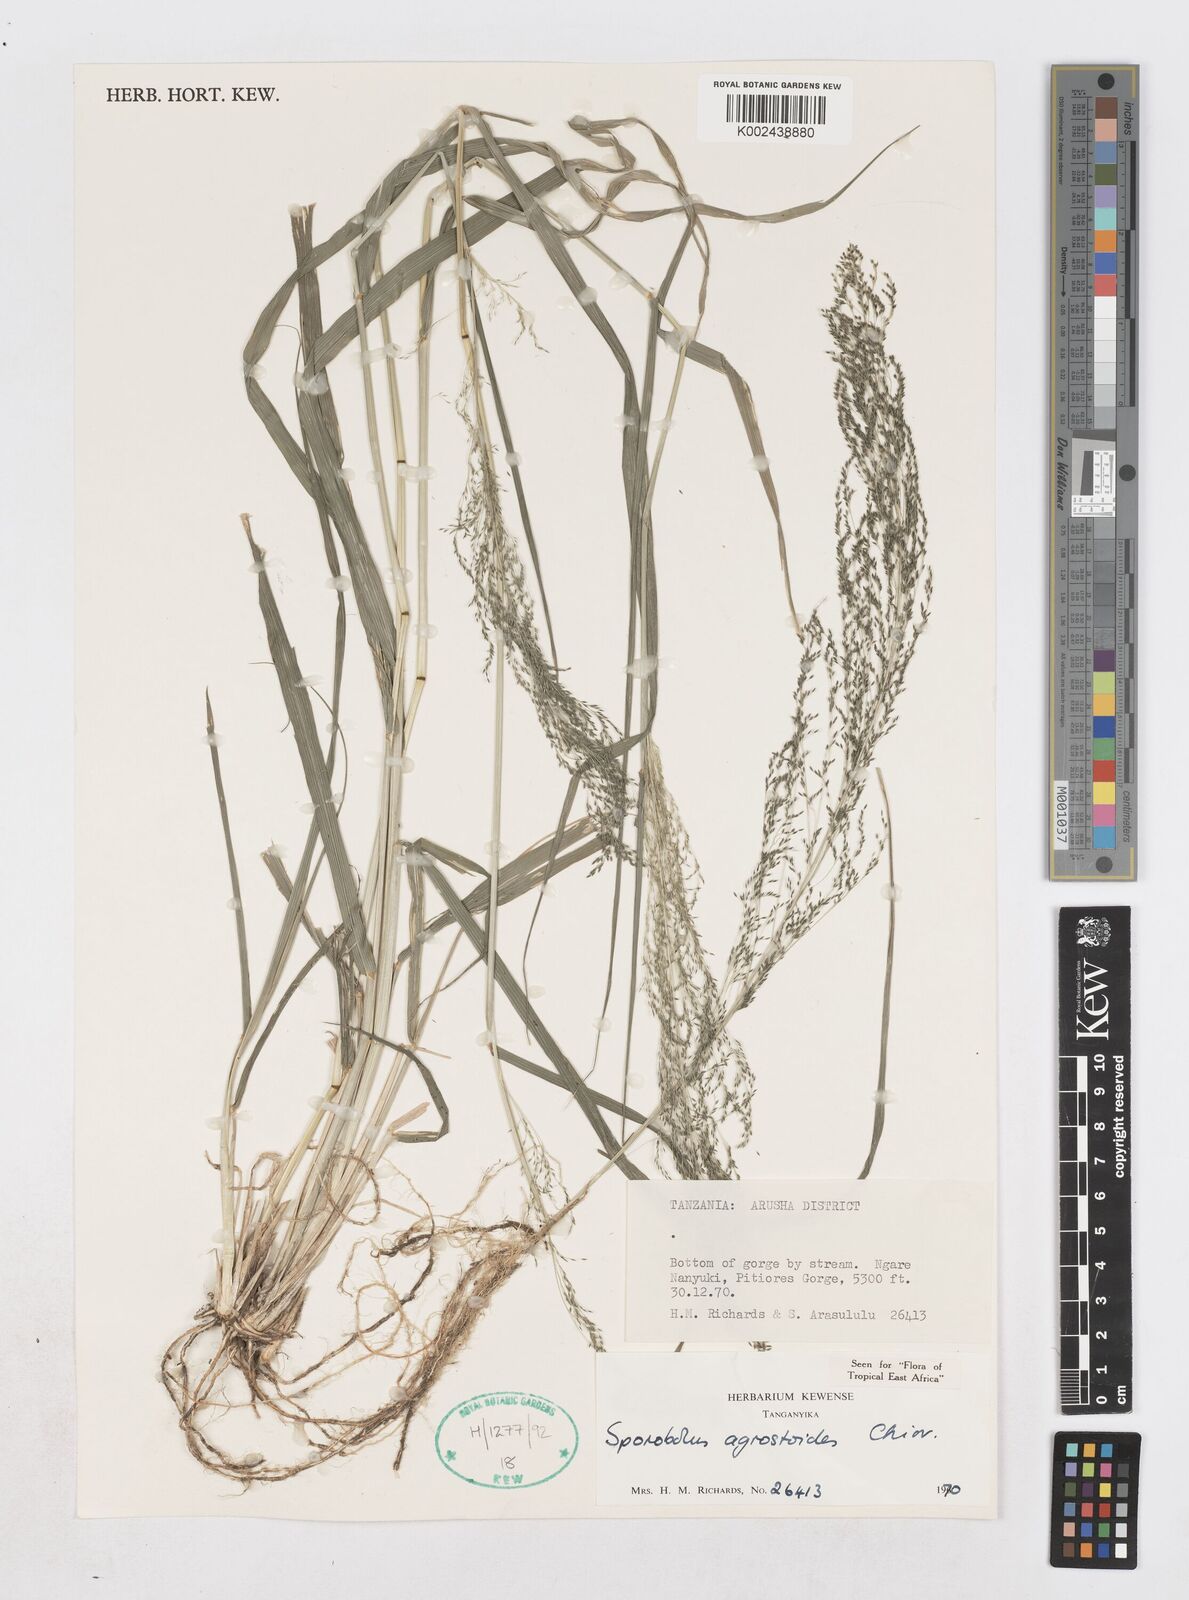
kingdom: Plantae
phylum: Tracheophyta
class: Liliopsida
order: Poales
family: Poaceae
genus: Sporobolus
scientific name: Sporobolus agrostoides
